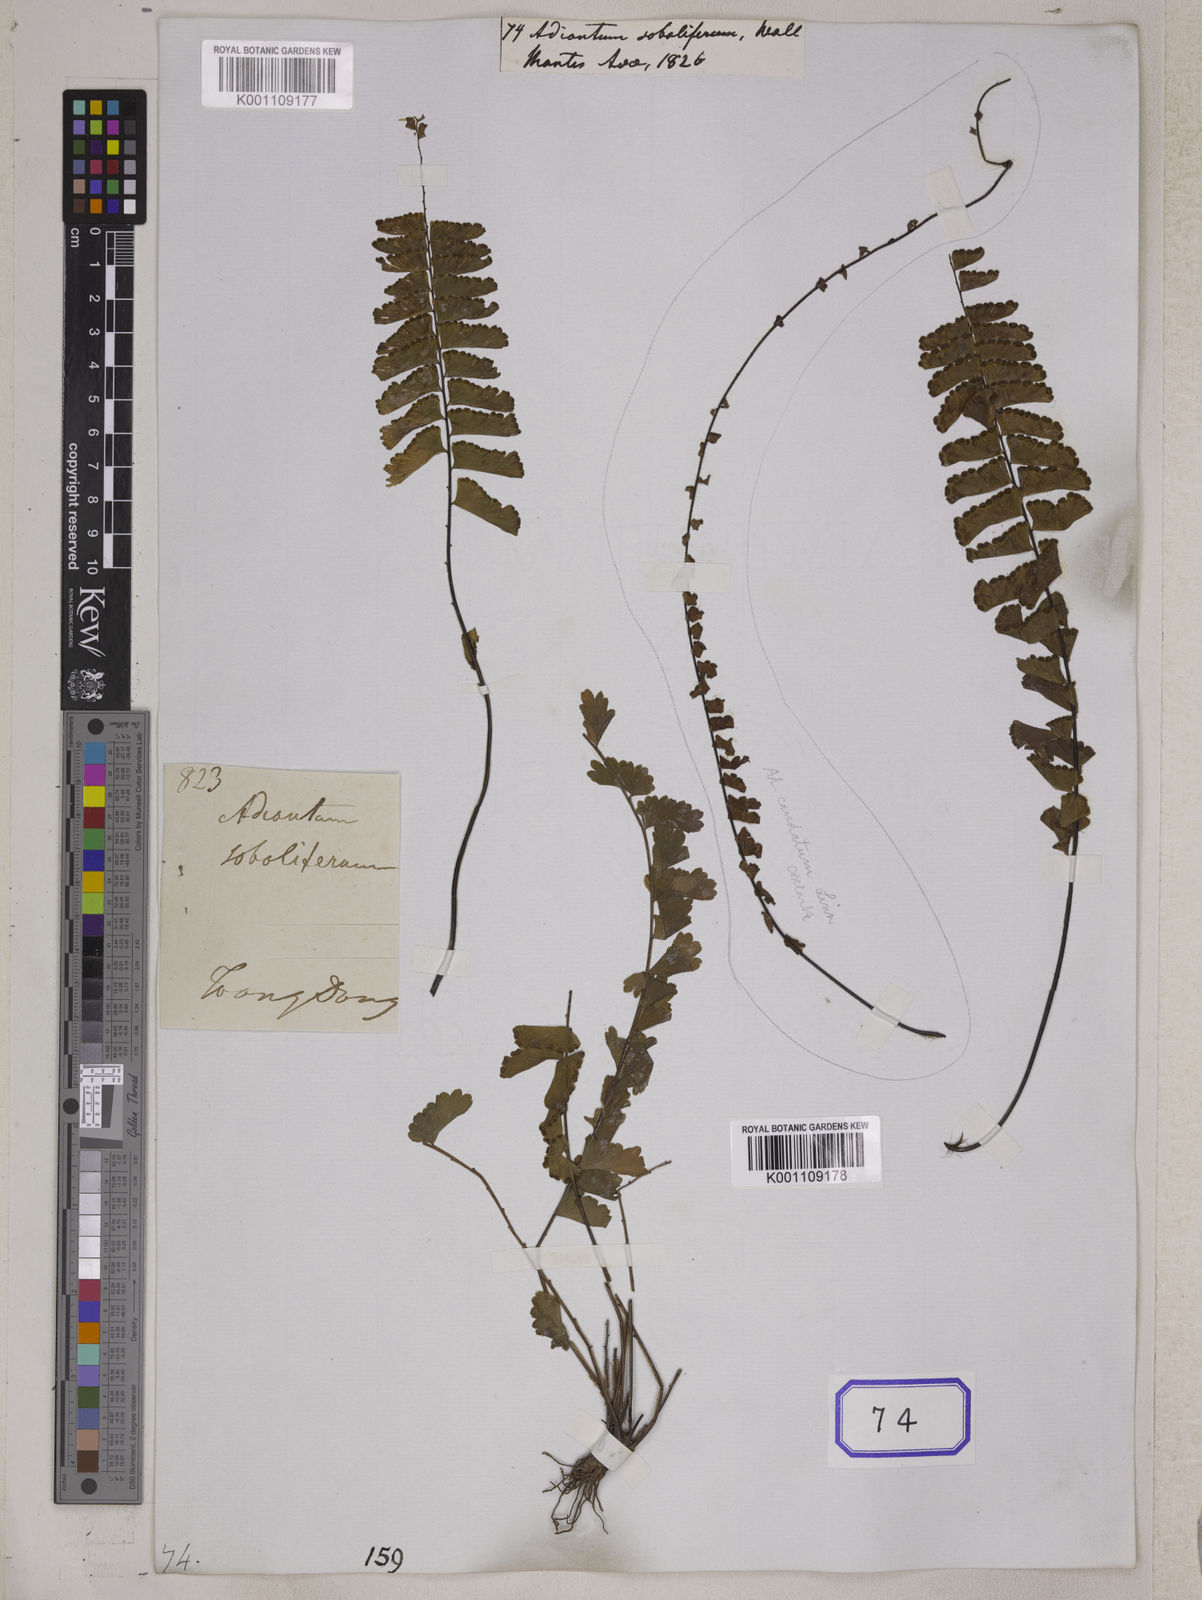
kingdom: Plantae
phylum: Tracheophyta
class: Polypodiopsida
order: Polypodiales
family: Pteridaceae
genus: Adiantum
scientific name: Adiantum soboliferum
